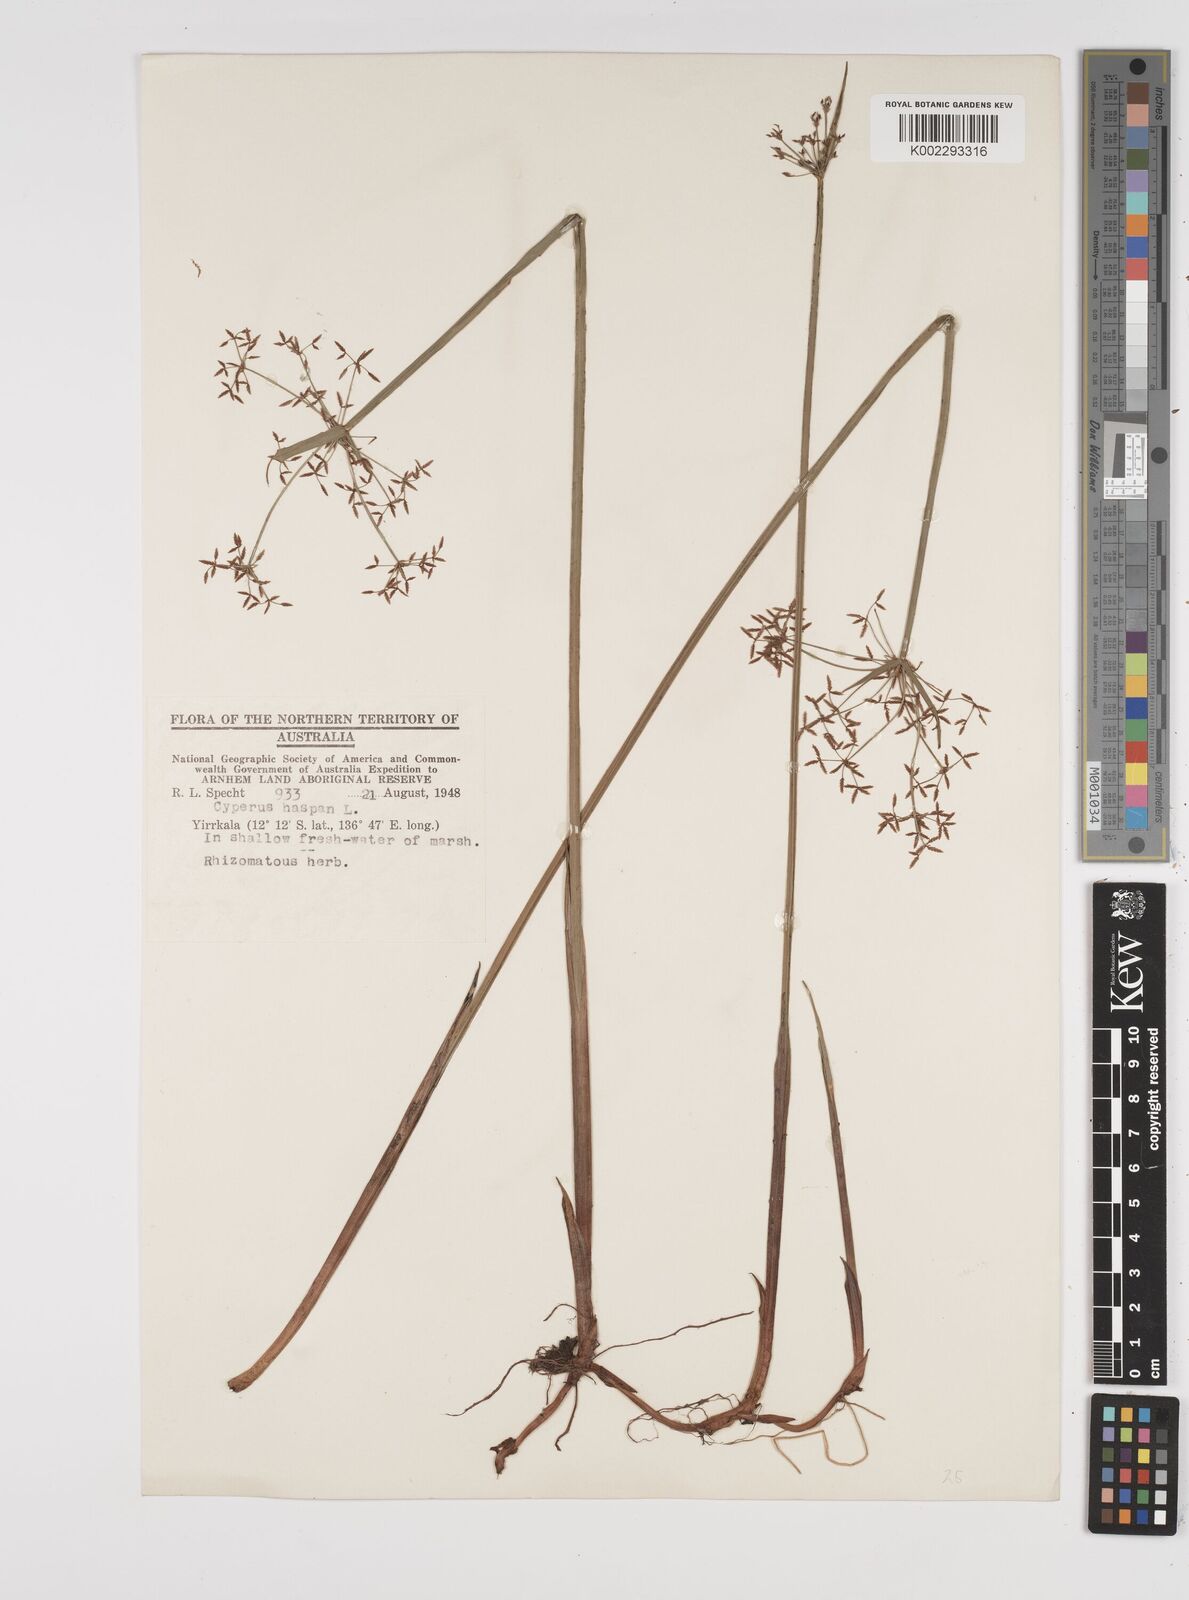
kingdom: Plantae
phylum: Tracheophyta
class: Liliopsida
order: Poales
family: Cyperaceae
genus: Cyperus
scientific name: Cyperus haspan
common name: Haspan flatsedge
